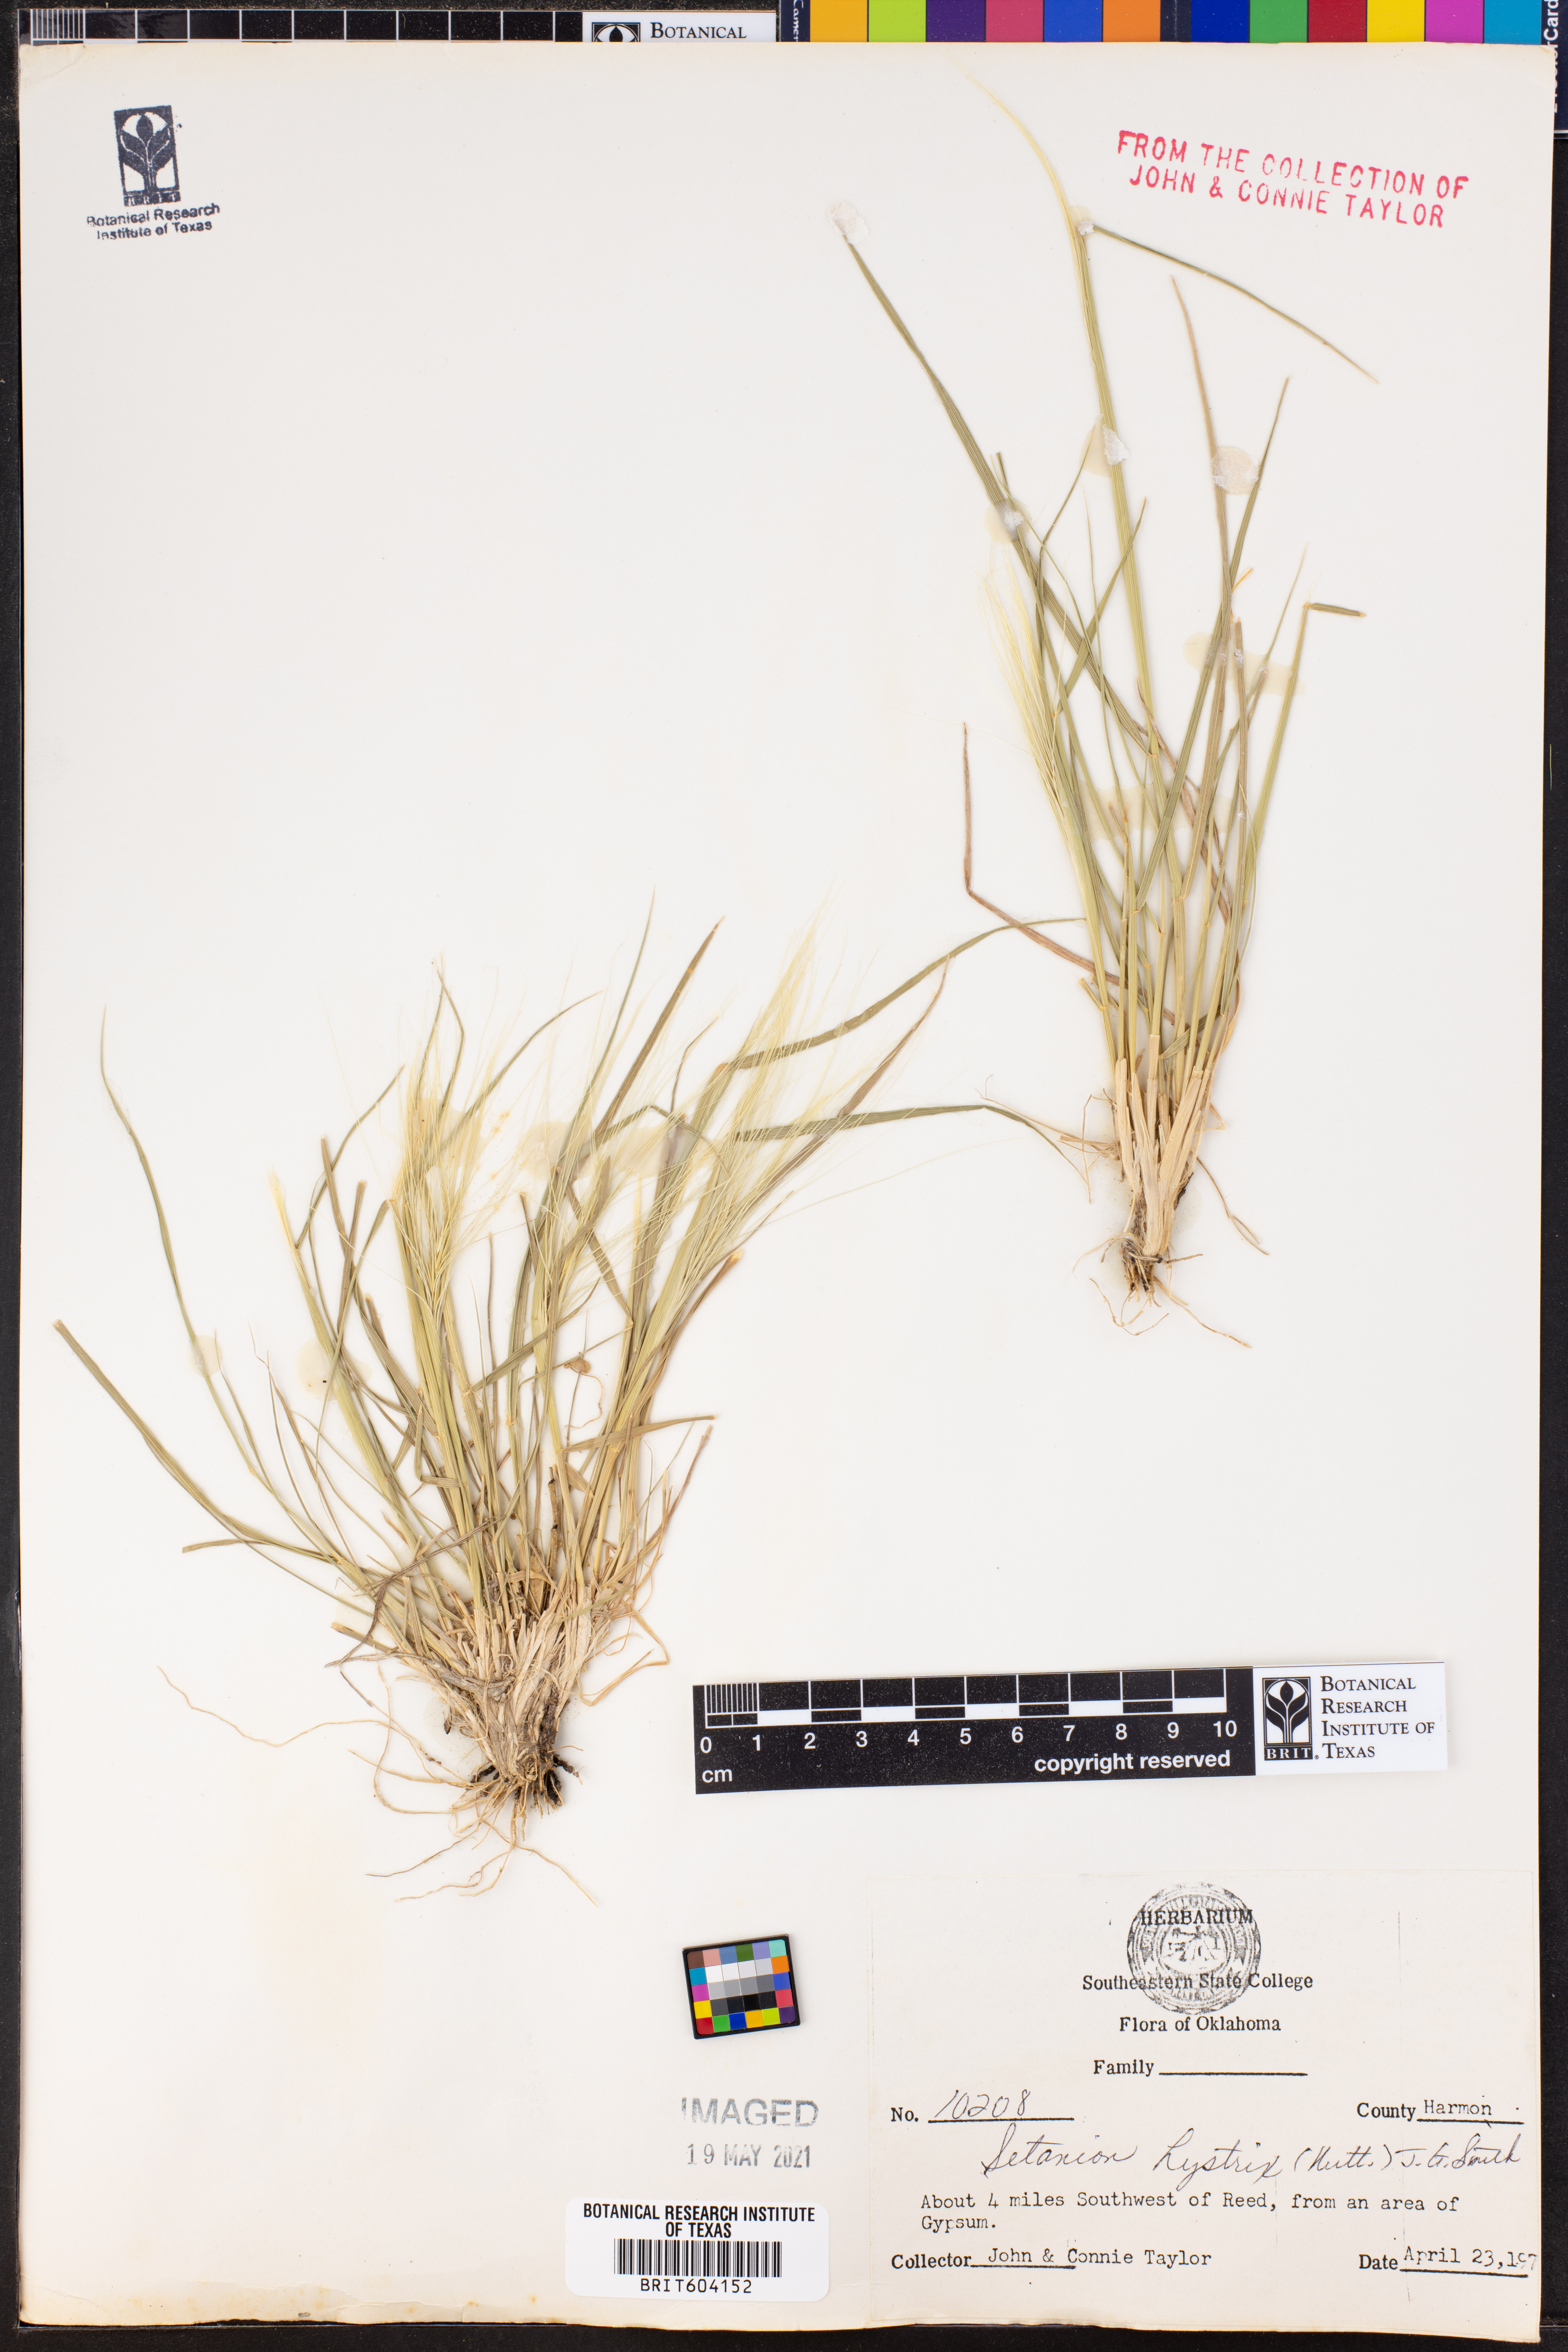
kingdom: Plantae
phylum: Tracheophyta
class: Liliopsida
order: Poales
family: Poaceae
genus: Elymus
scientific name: Elymus elymoides
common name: Bottlebrush squirreltail
